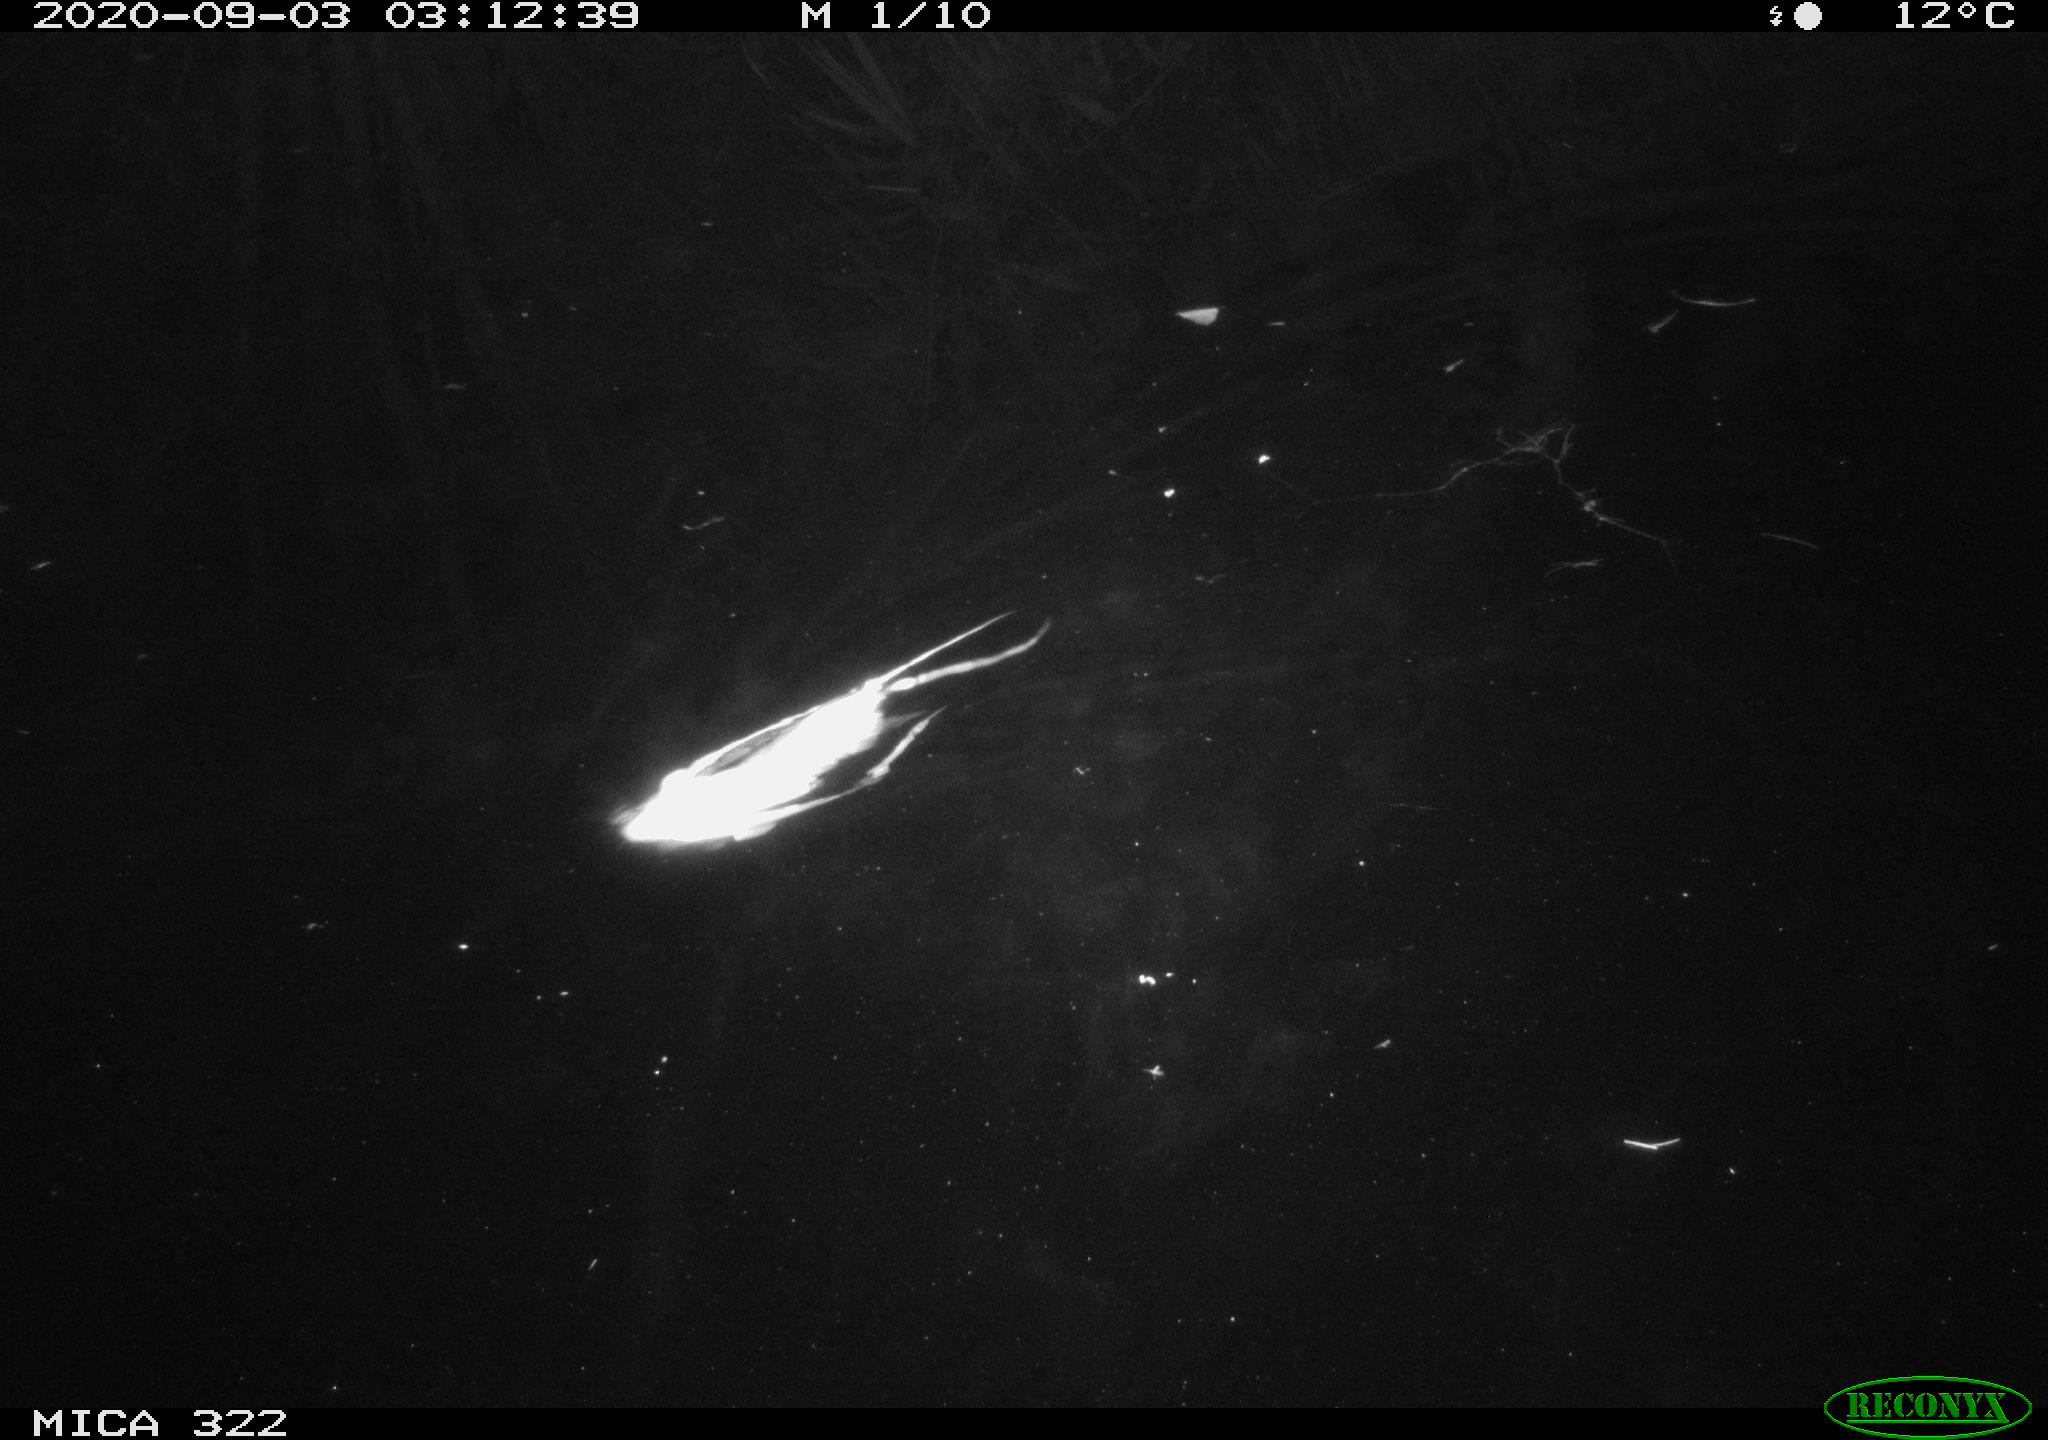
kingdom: Animalia
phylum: Chordata
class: Mammalia
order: Rodentia
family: Muridae
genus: Rattus
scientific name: Rattus norvegicus
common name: Brown rat
